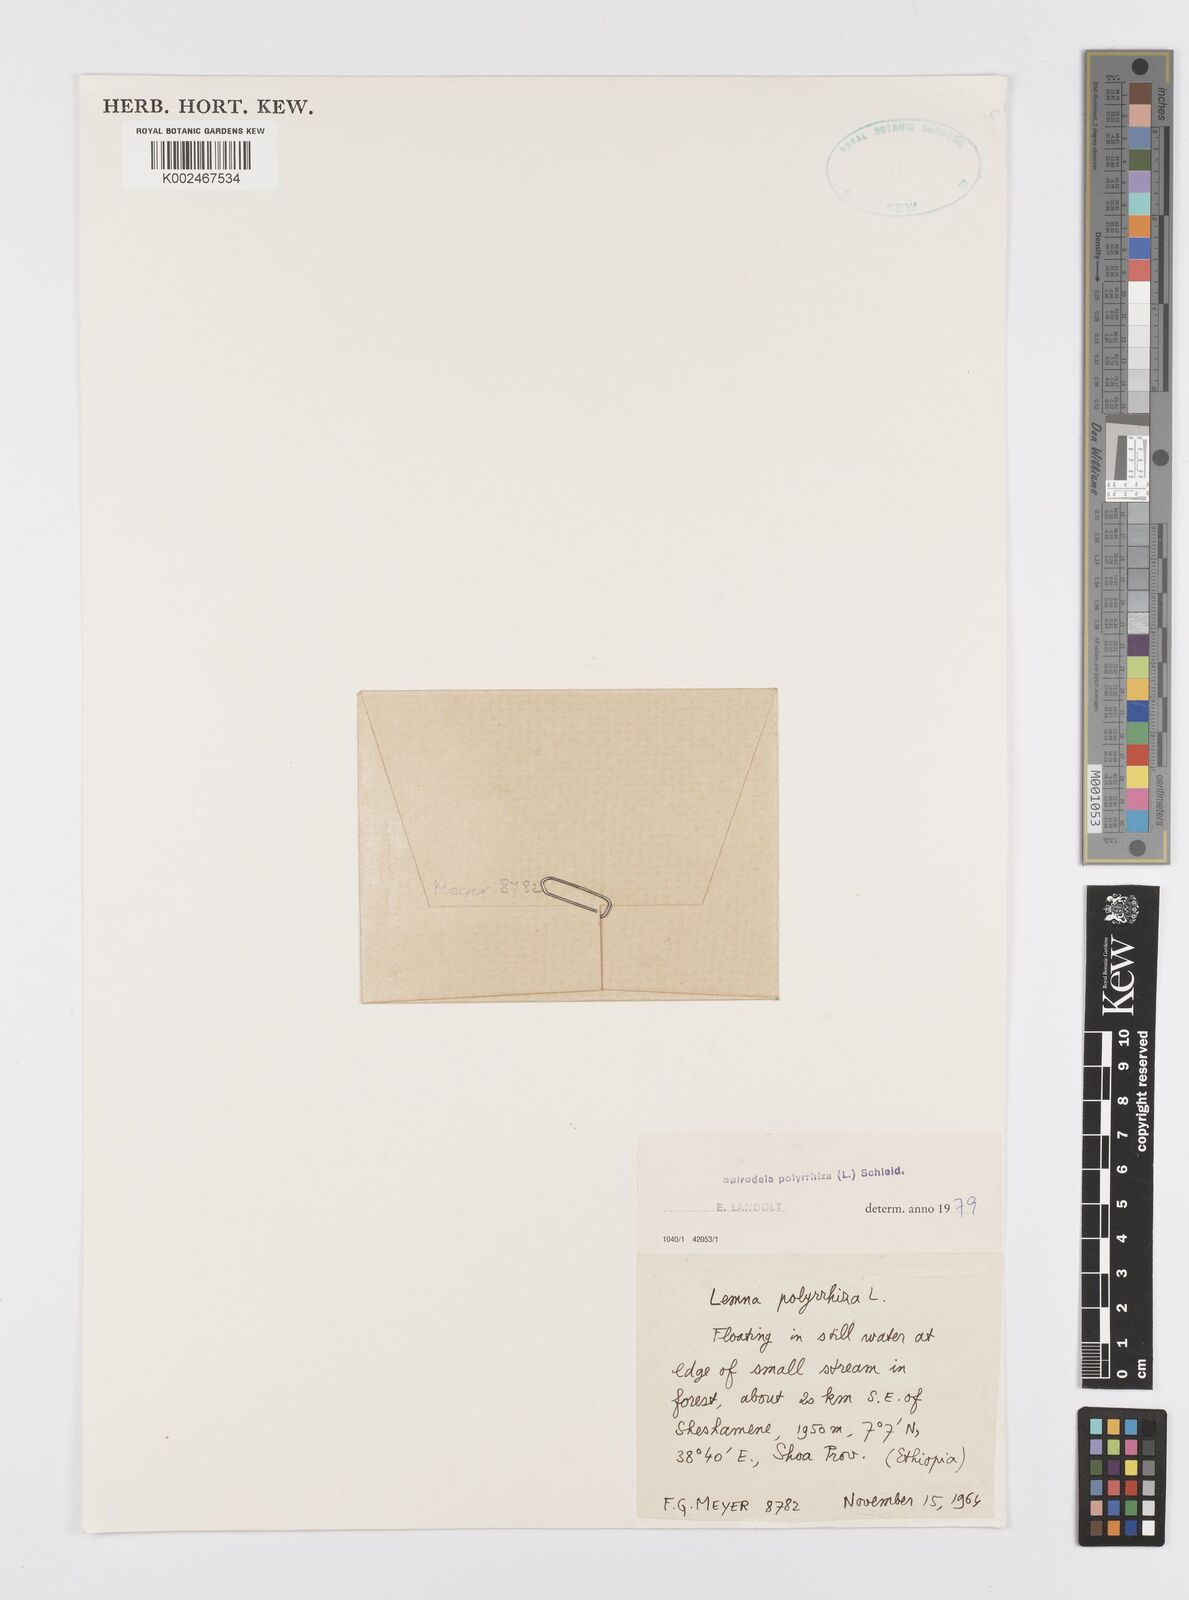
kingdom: Plantae
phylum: Tracheophyta
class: Liliopsida
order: Alismatales
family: Araceae
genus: Spirodela
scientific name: Spirodela polyrhiza
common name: Great duckweed
